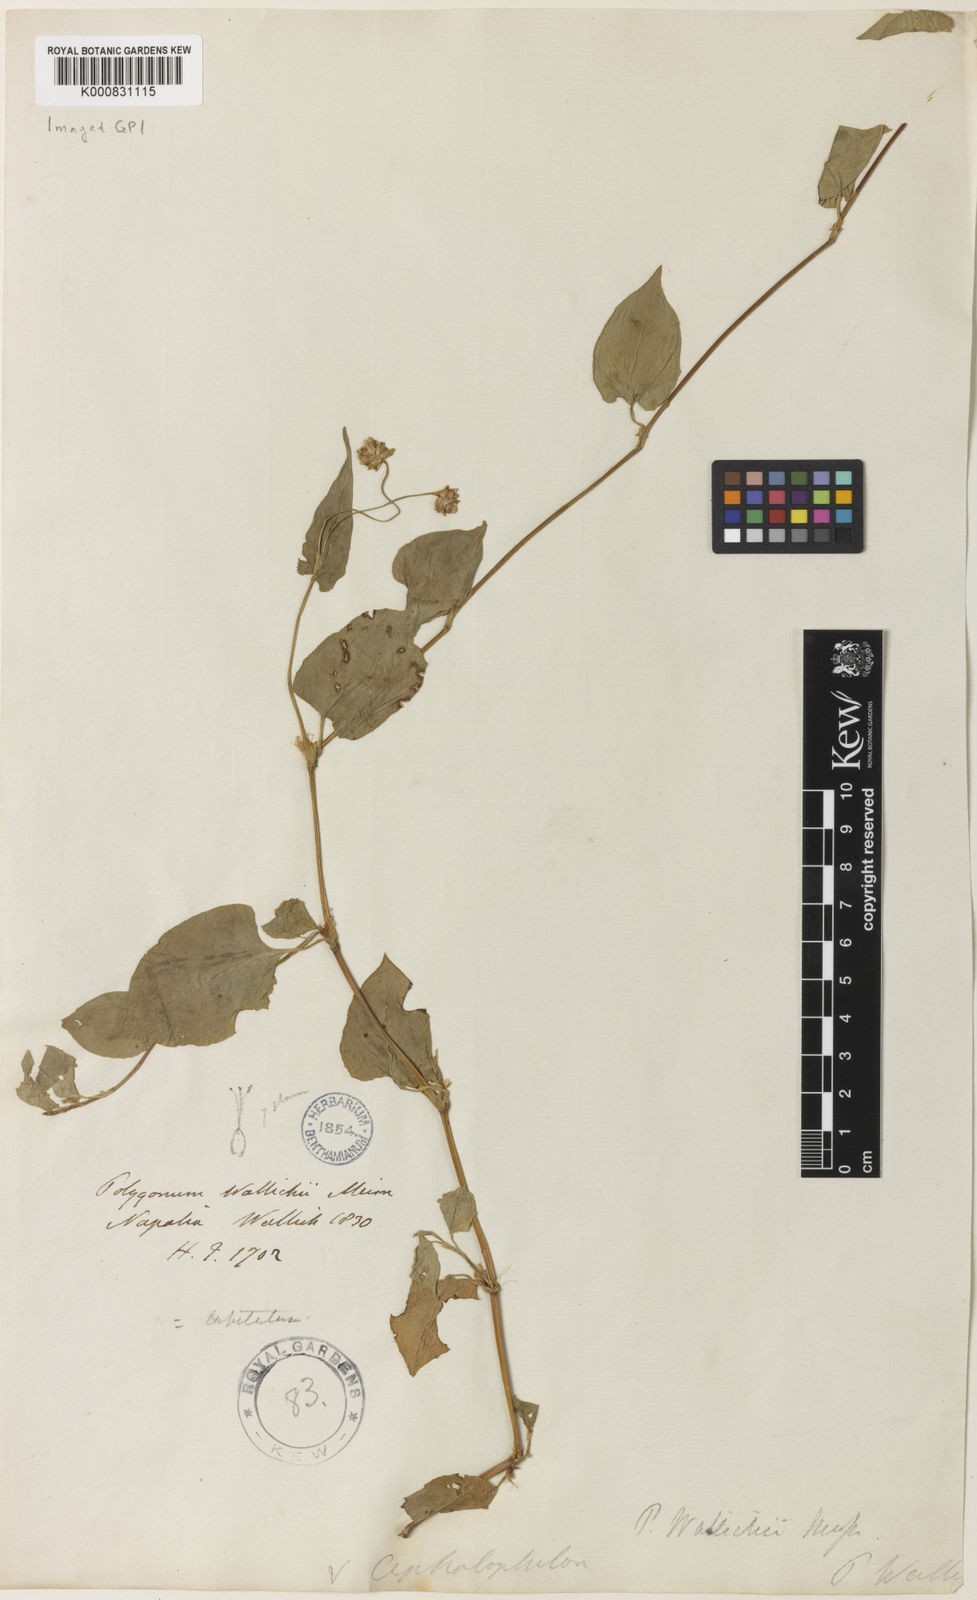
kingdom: Plantae
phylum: Tracheophyta
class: Magnoliopsida
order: Caryophyllales
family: Polygonaceae
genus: Persicaria
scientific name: Persicaria microcephala
